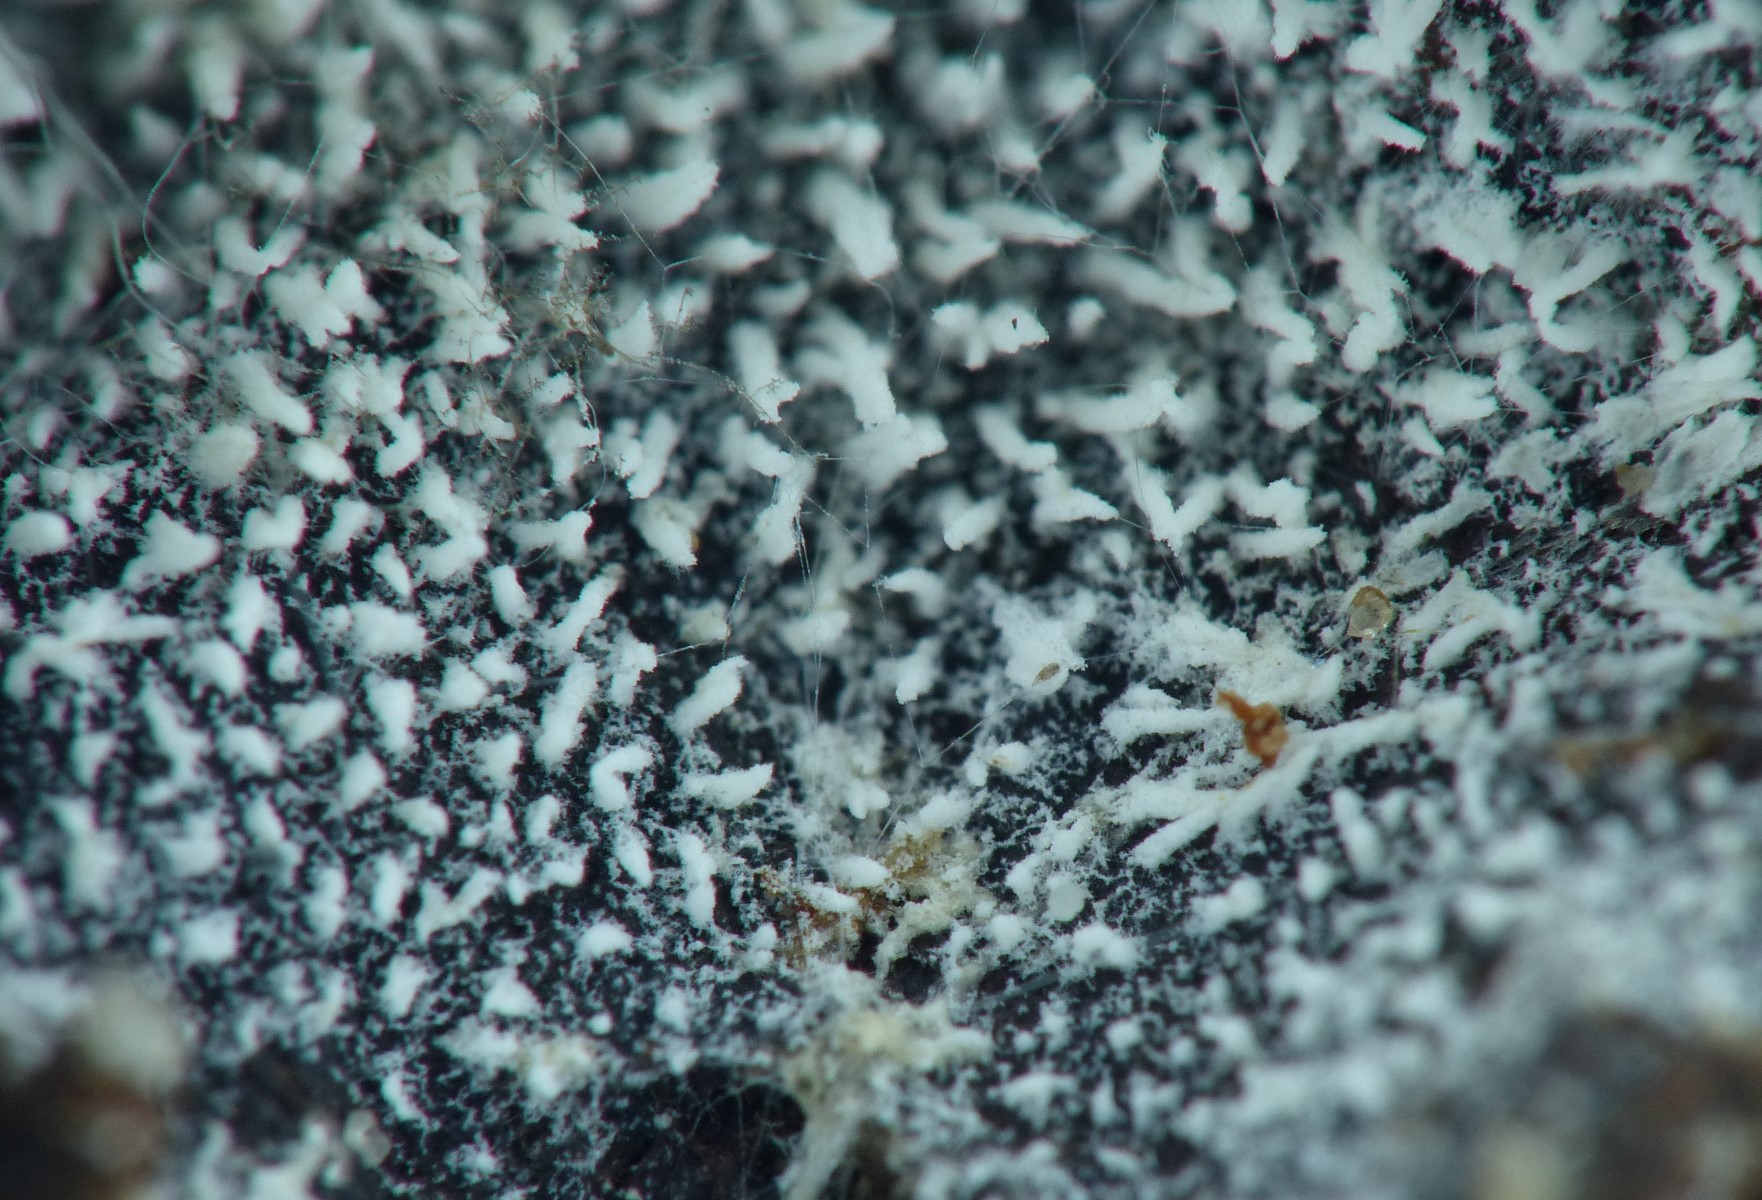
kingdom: Fungi
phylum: Basidiomycota
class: Agaricomycetes
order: Trechisporales
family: Sistotremataceae
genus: Trechispora
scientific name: Trechispora nivea
